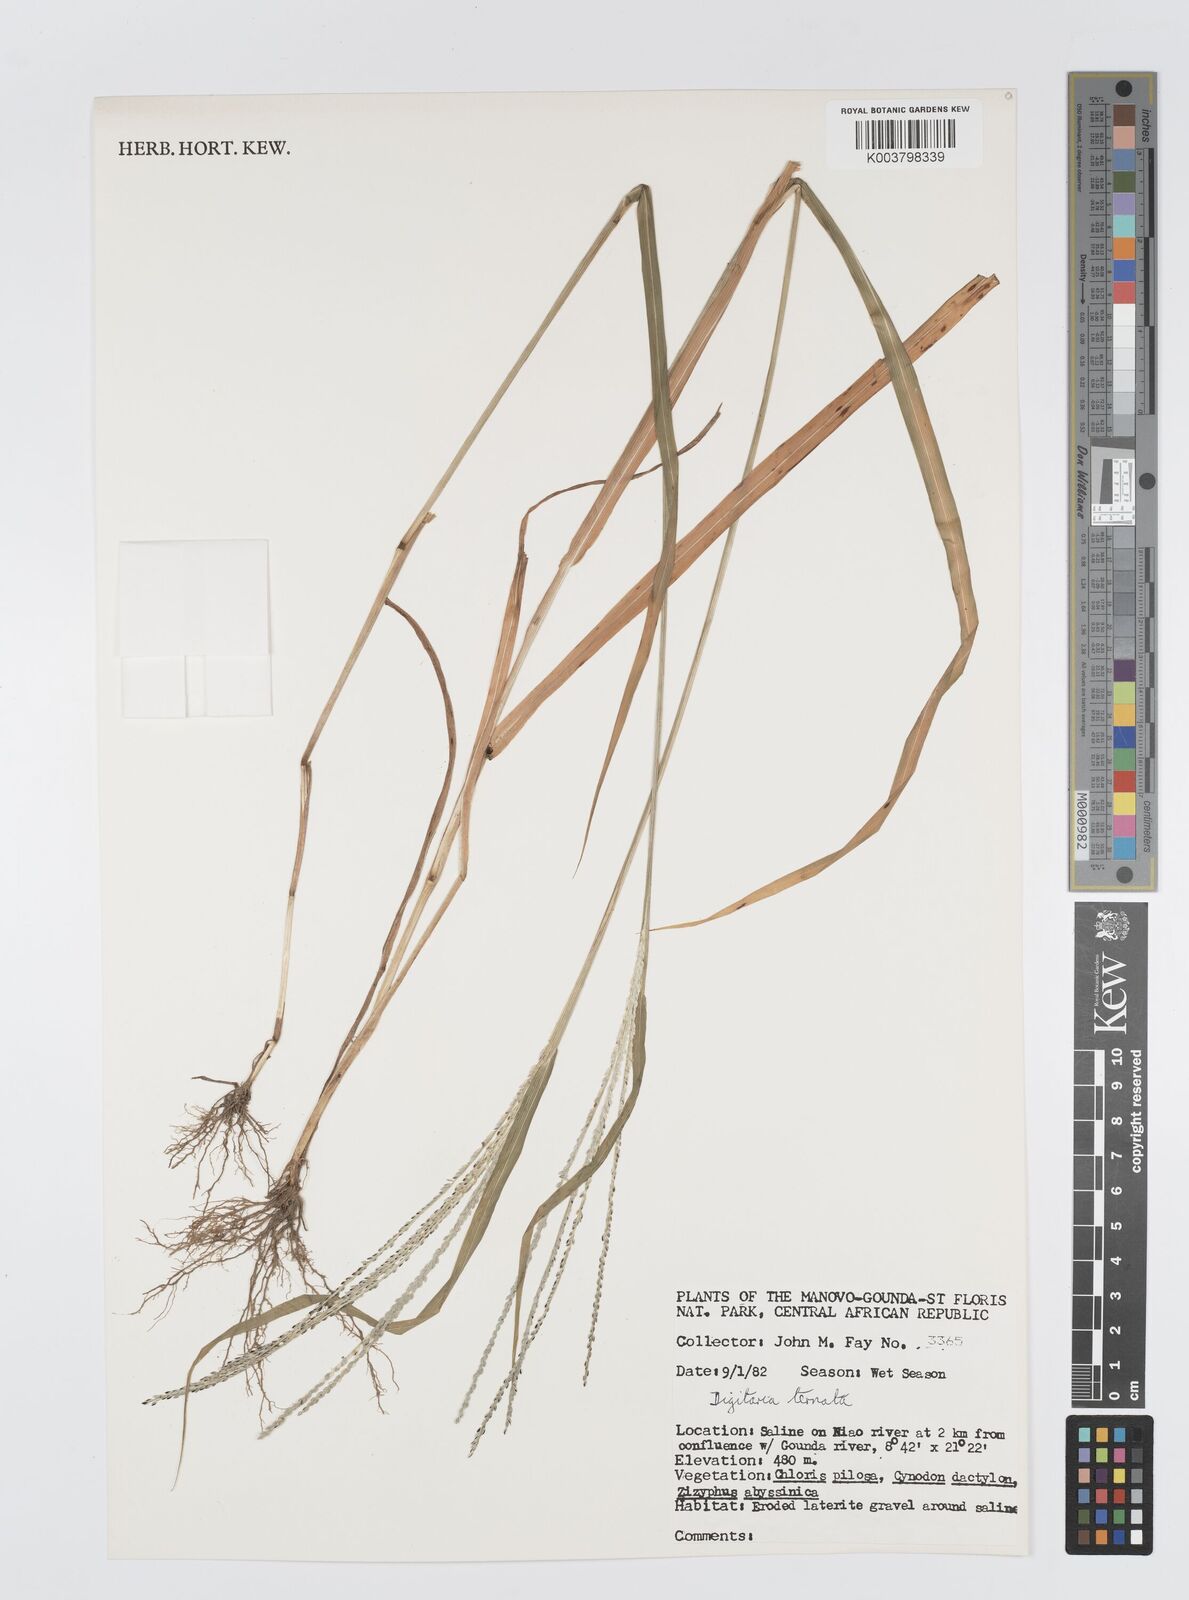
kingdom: Plantae
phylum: Tracheophyta
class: Liliopsida
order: Poales
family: Poaceae
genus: Digitaria
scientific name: Digitaria ternata
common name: Blackseed crabgrass
